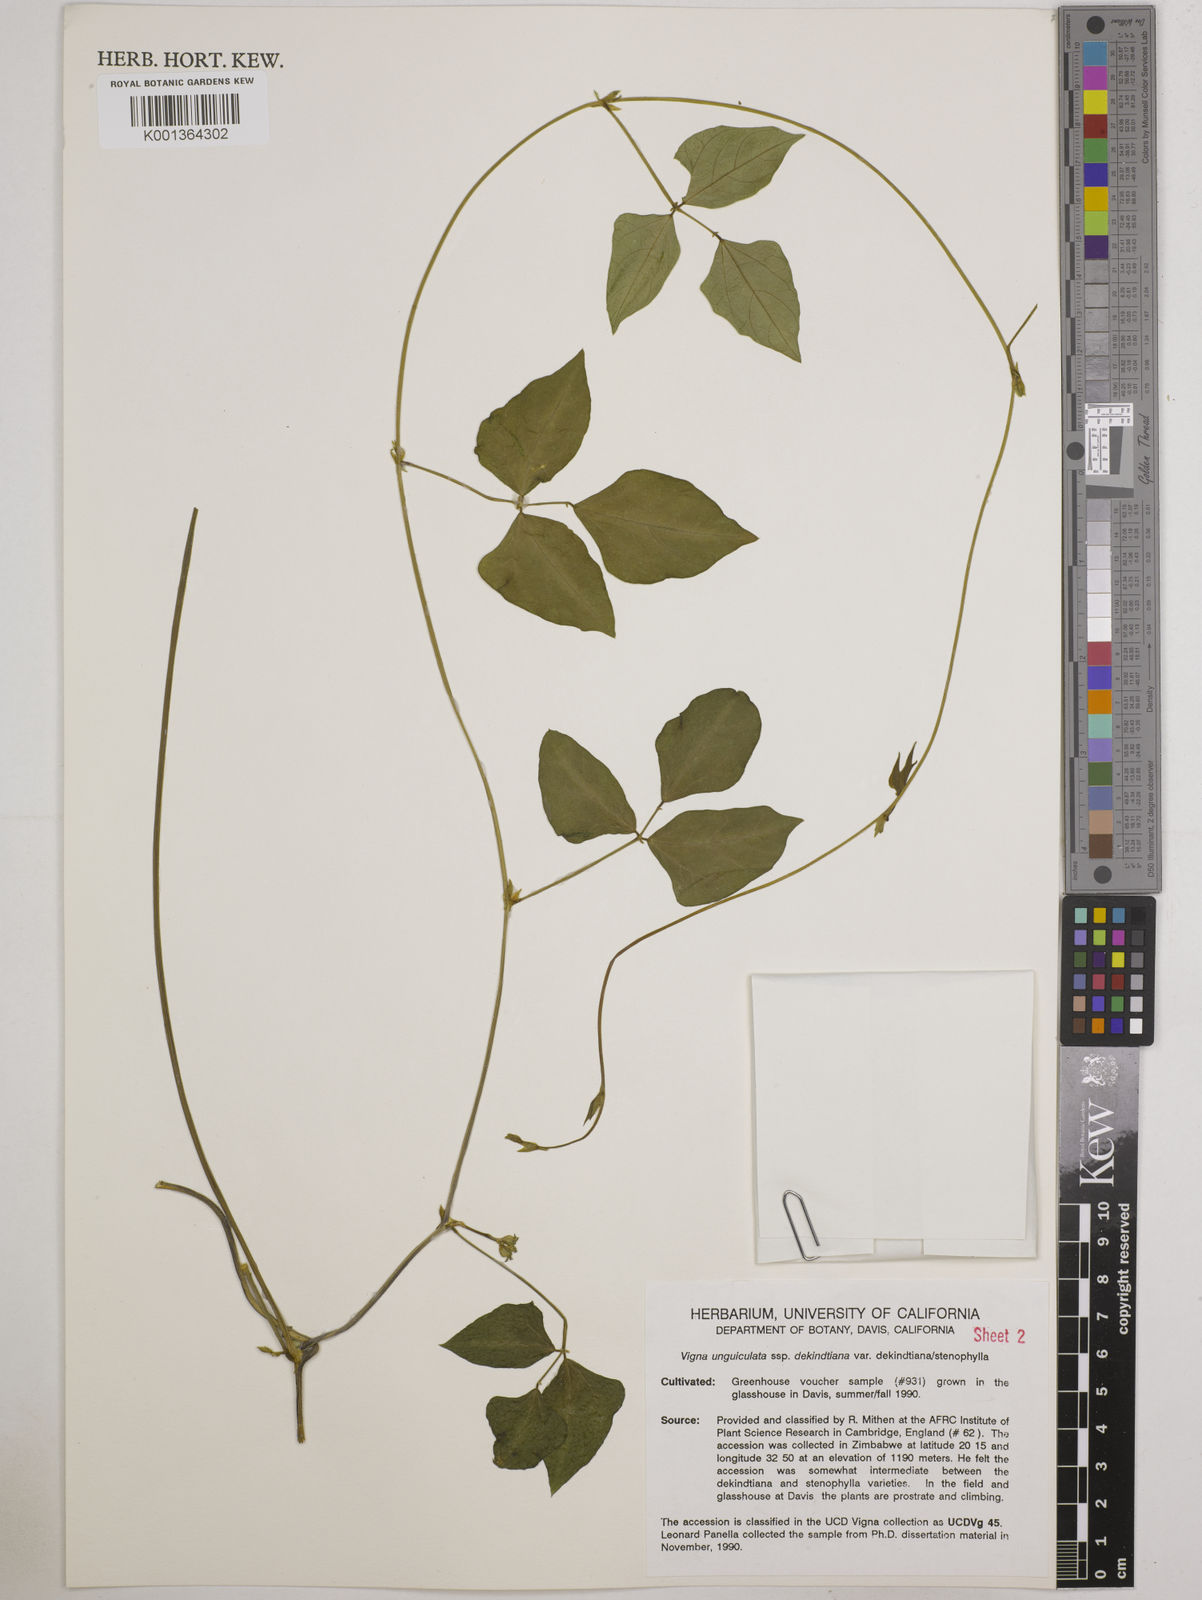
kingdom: Plantae
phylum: Tracheophyta
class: Magnoliopsida
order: Fabales
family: Fabaceae
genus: Vigna
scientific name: Vigna
